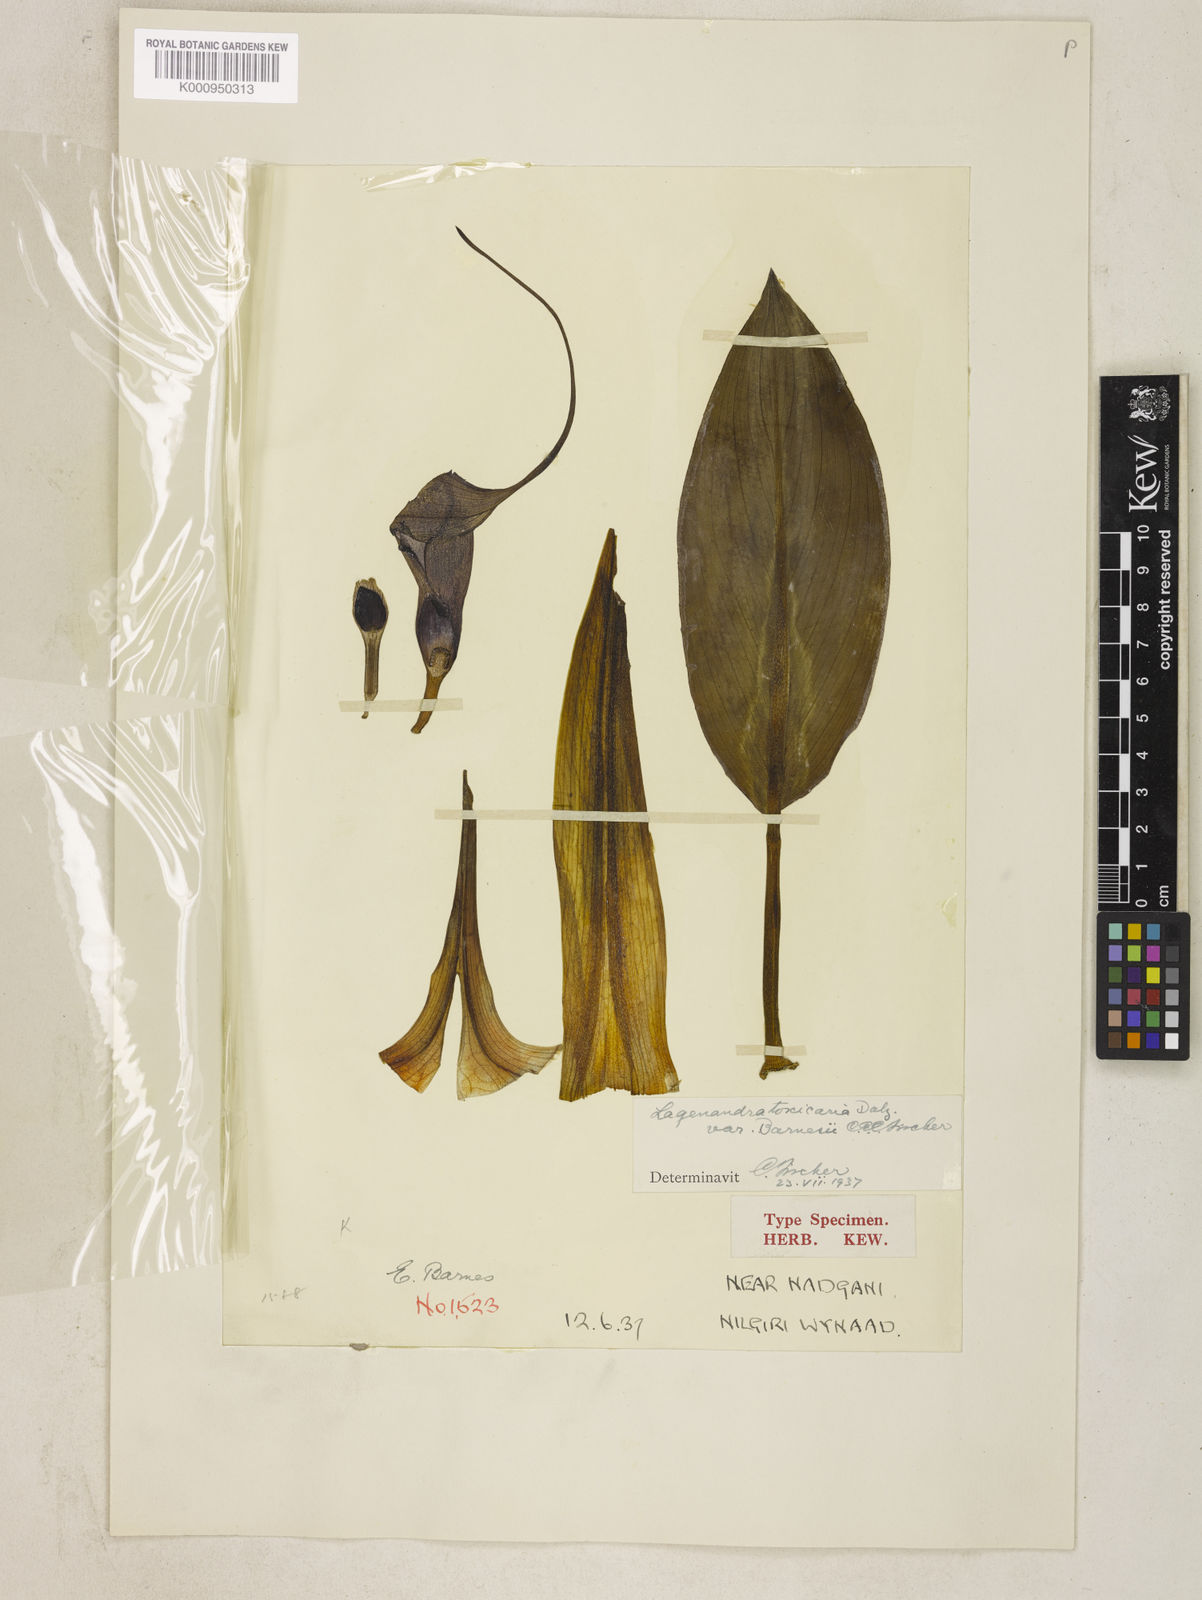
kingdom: Plantae
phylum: Tracheophyta
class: Liliopsida
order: Alismatales
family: Araceae
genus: Lagenandra
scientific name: Lagenandra toxicaria
